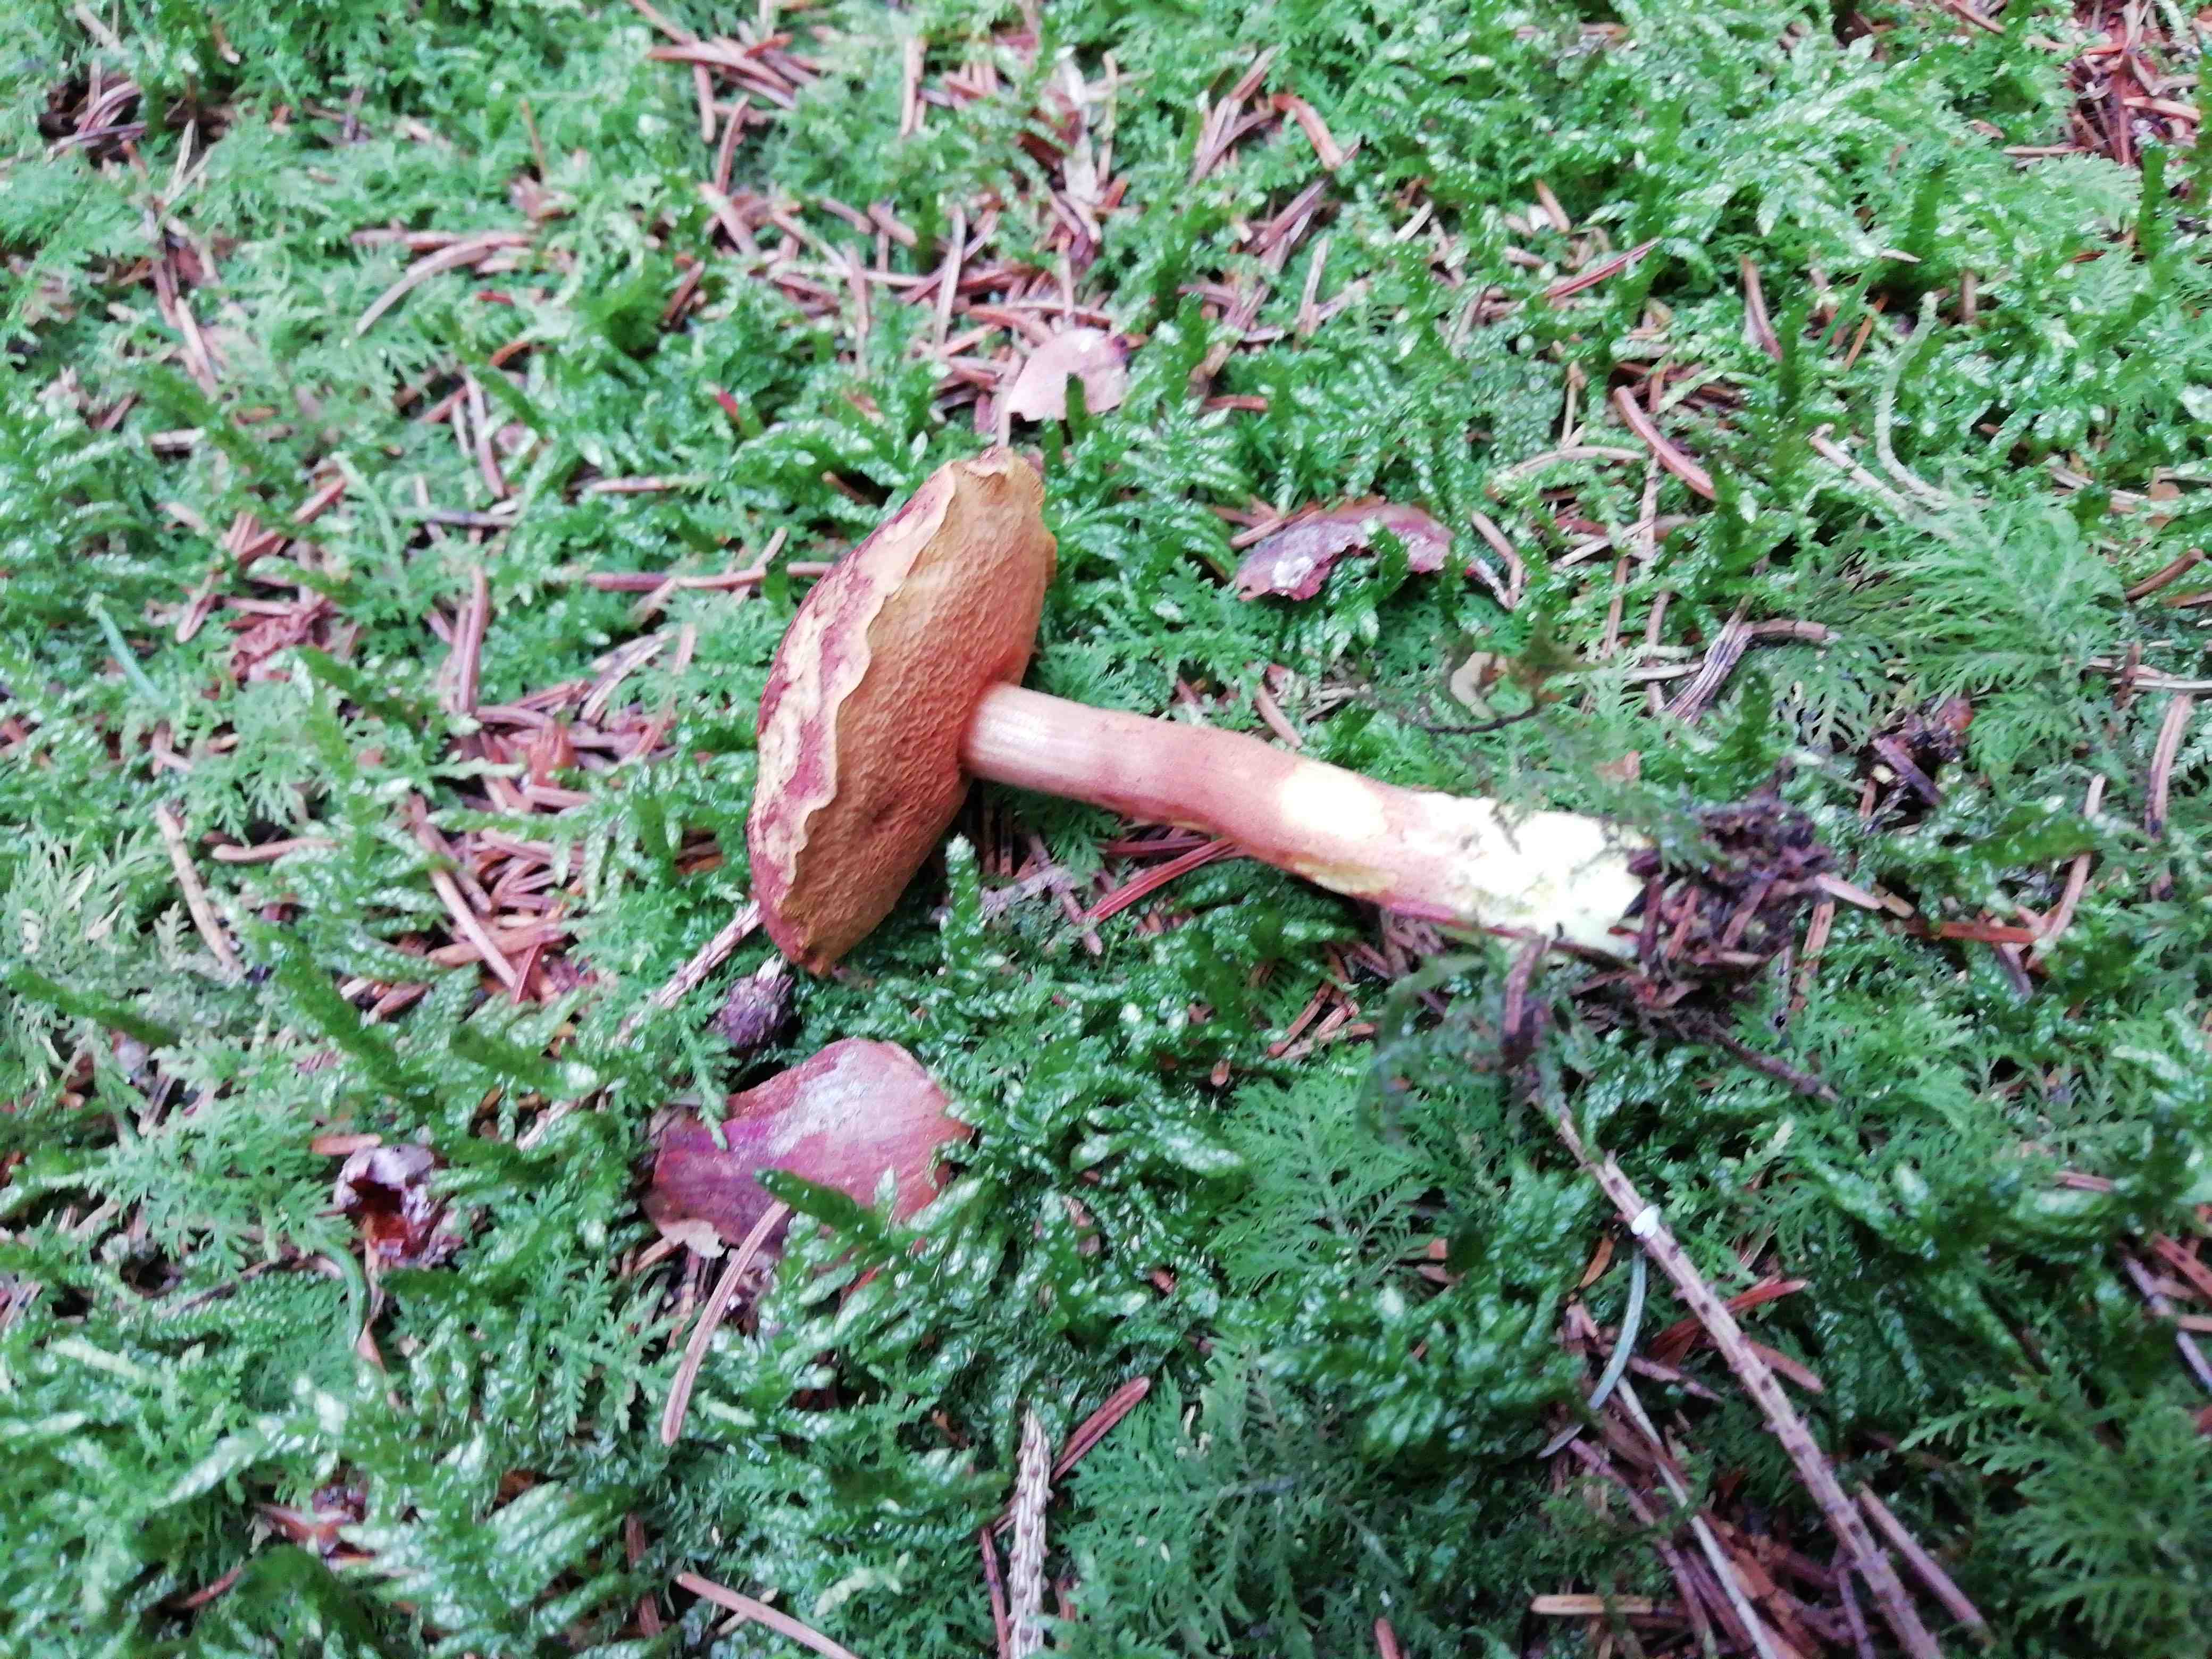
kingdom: Fungi
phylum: Basidiomycota
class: Agaricomycetes
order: Boletales
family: Boletaceae
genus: Chalciporus
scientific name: Chalciporus piperatus
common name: peberrørhat
